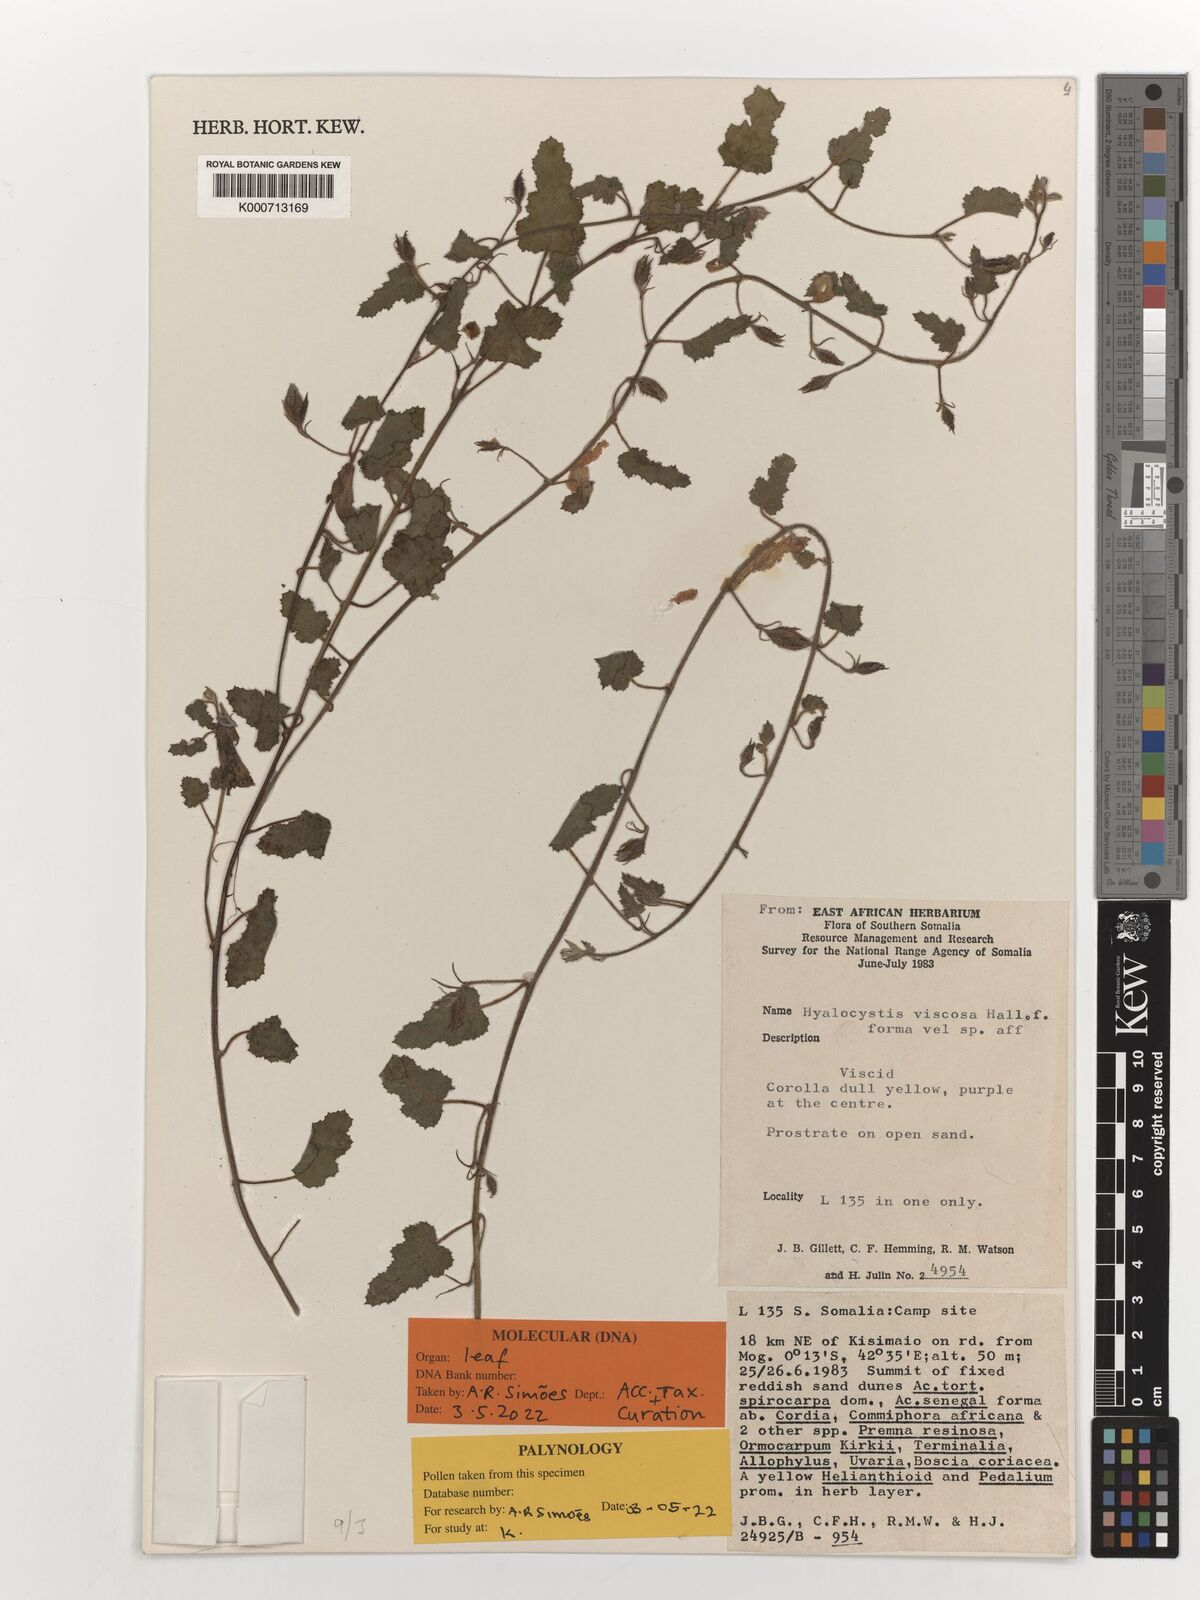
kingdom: Plantae
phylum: Tracheophyta
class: Magnoliopsida
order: Solanales
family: Convolvulaceae
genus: Hyalocystis
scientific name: Hyalocystis viscosa
